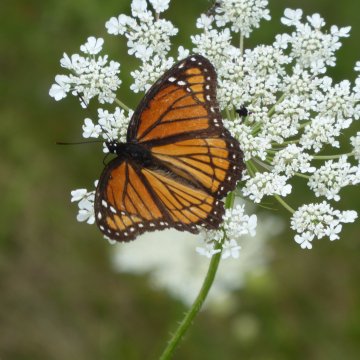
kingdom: Animalia
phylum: Arthropoda
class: Insecta
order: Lepidoptera
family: Nymphalidae
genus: Limenitis
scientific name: Limenitis archippus
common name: Viceroy
